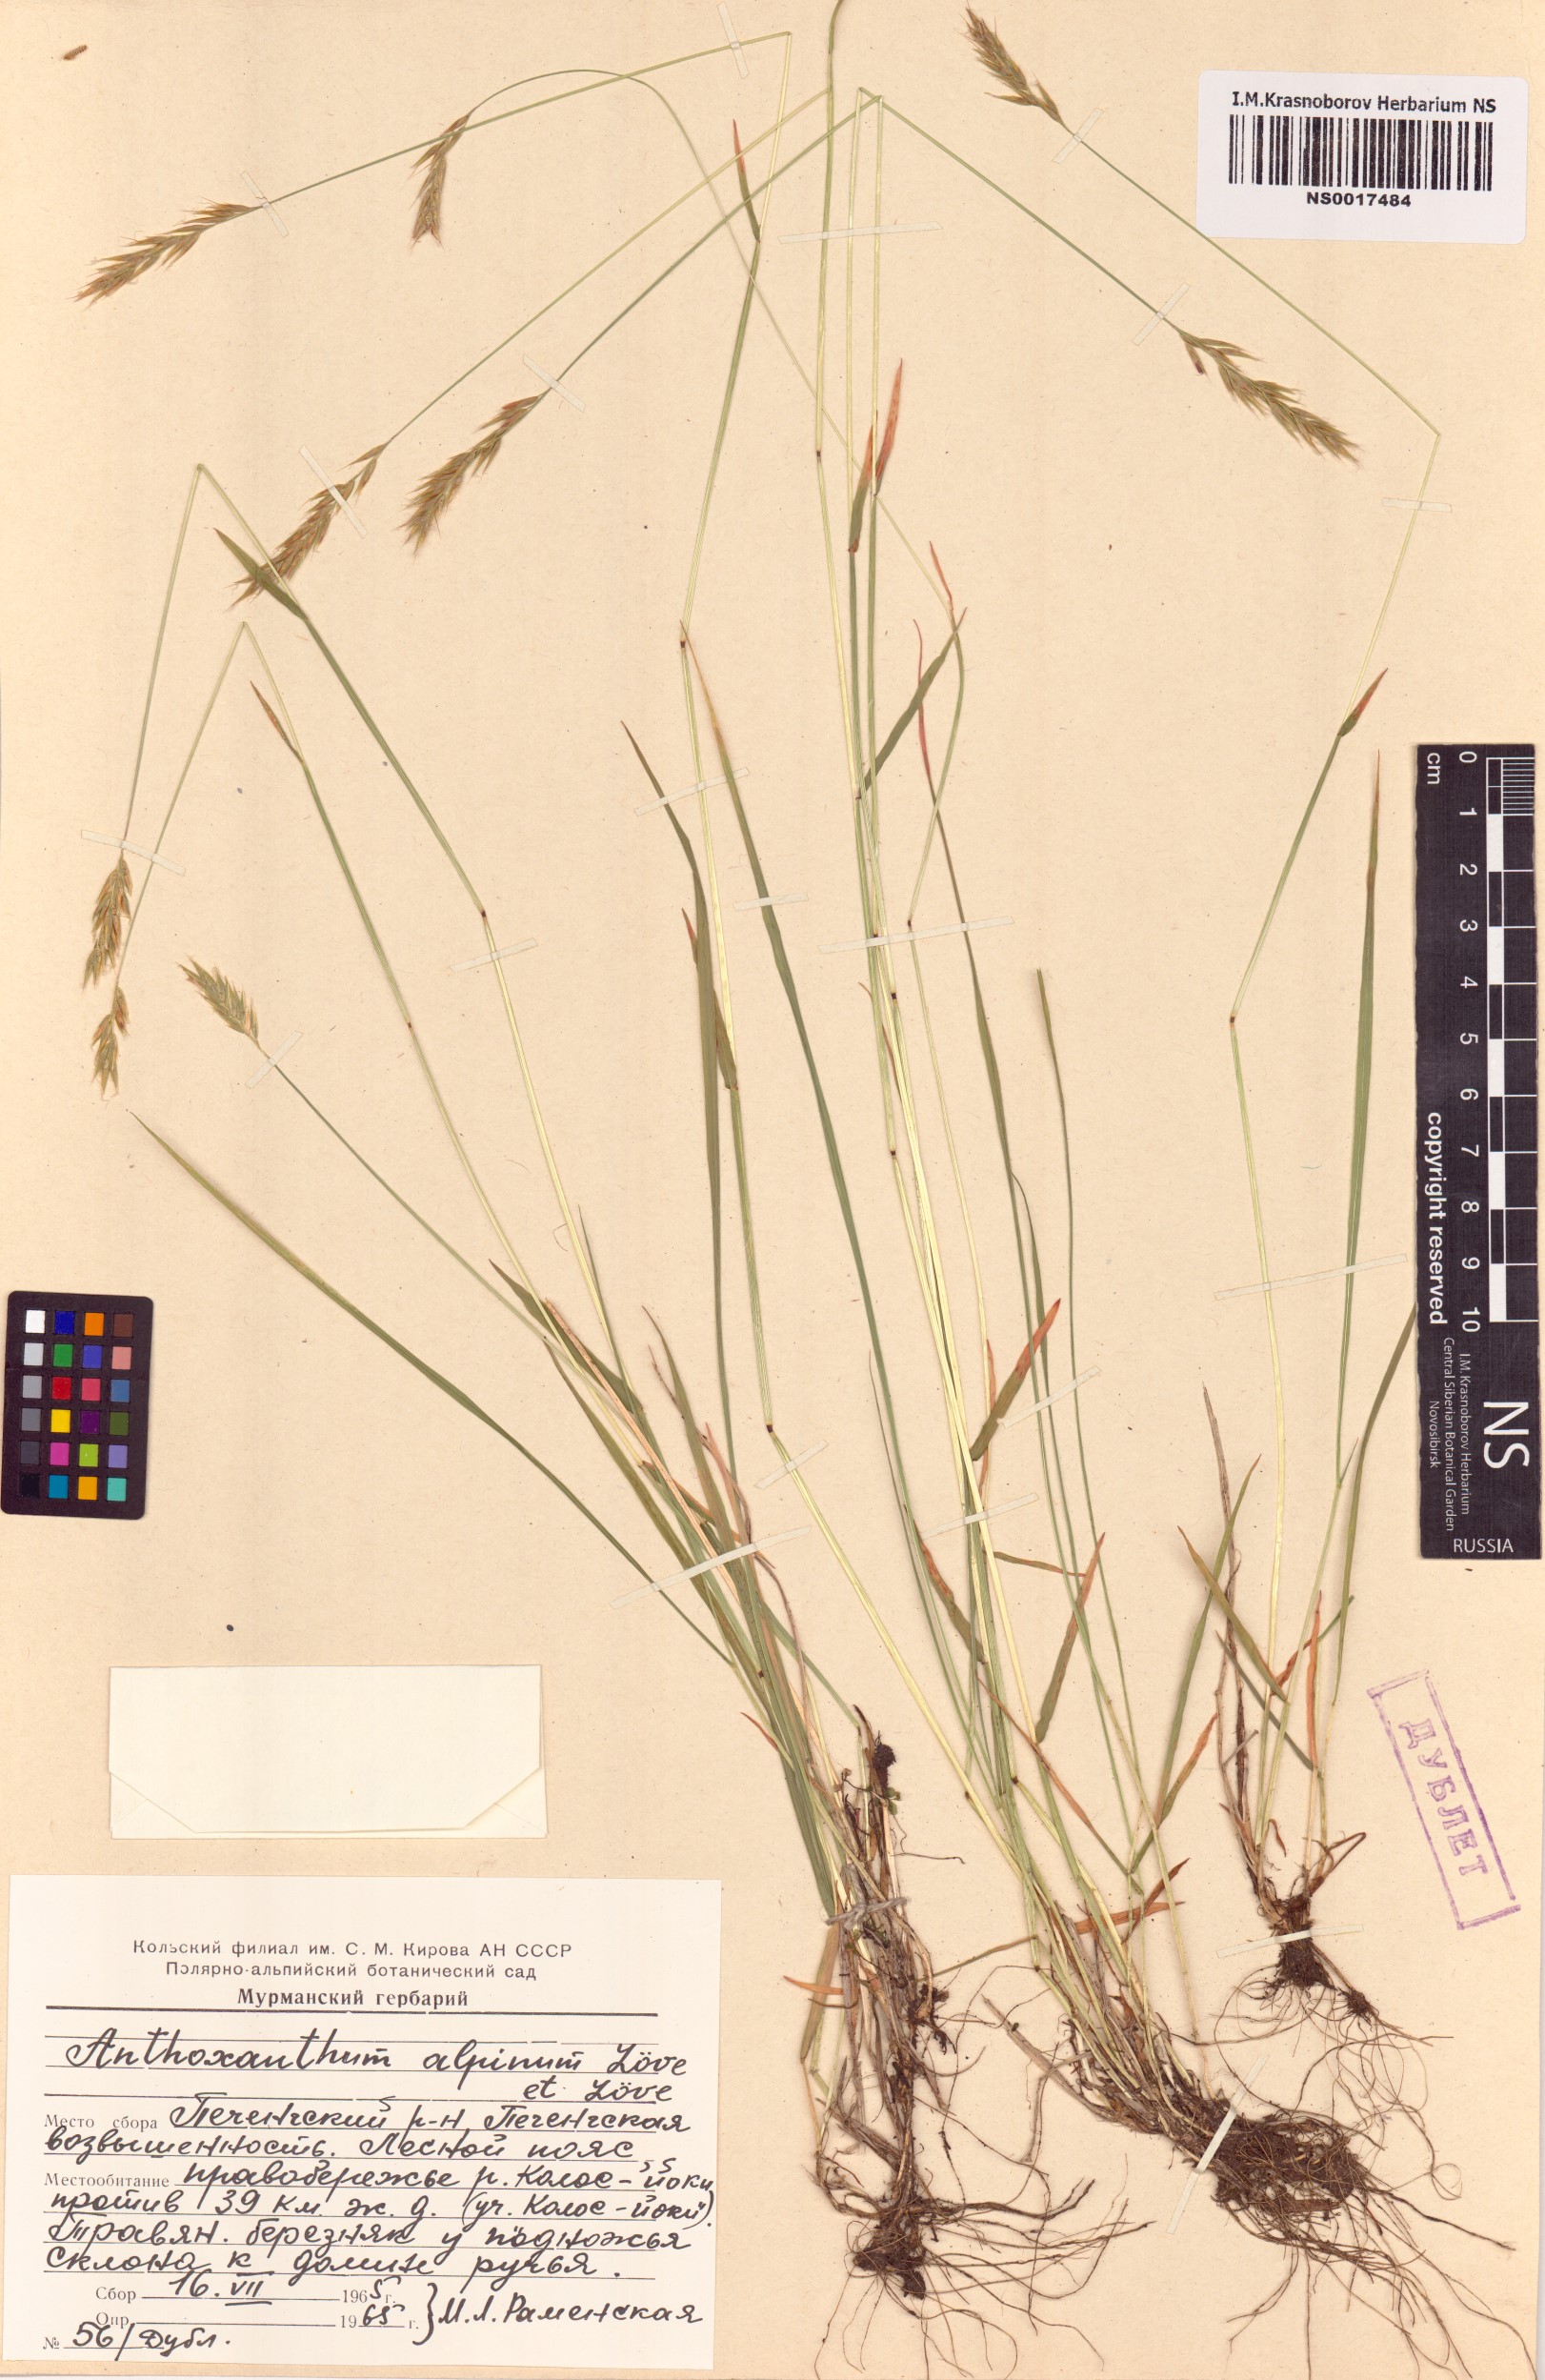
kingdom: Plantae
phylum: Tracheophyta
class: Liliopsida
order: Poales
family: Poaceae
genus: Anthoxanthum
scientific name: Anthoxanthum nipponicum
